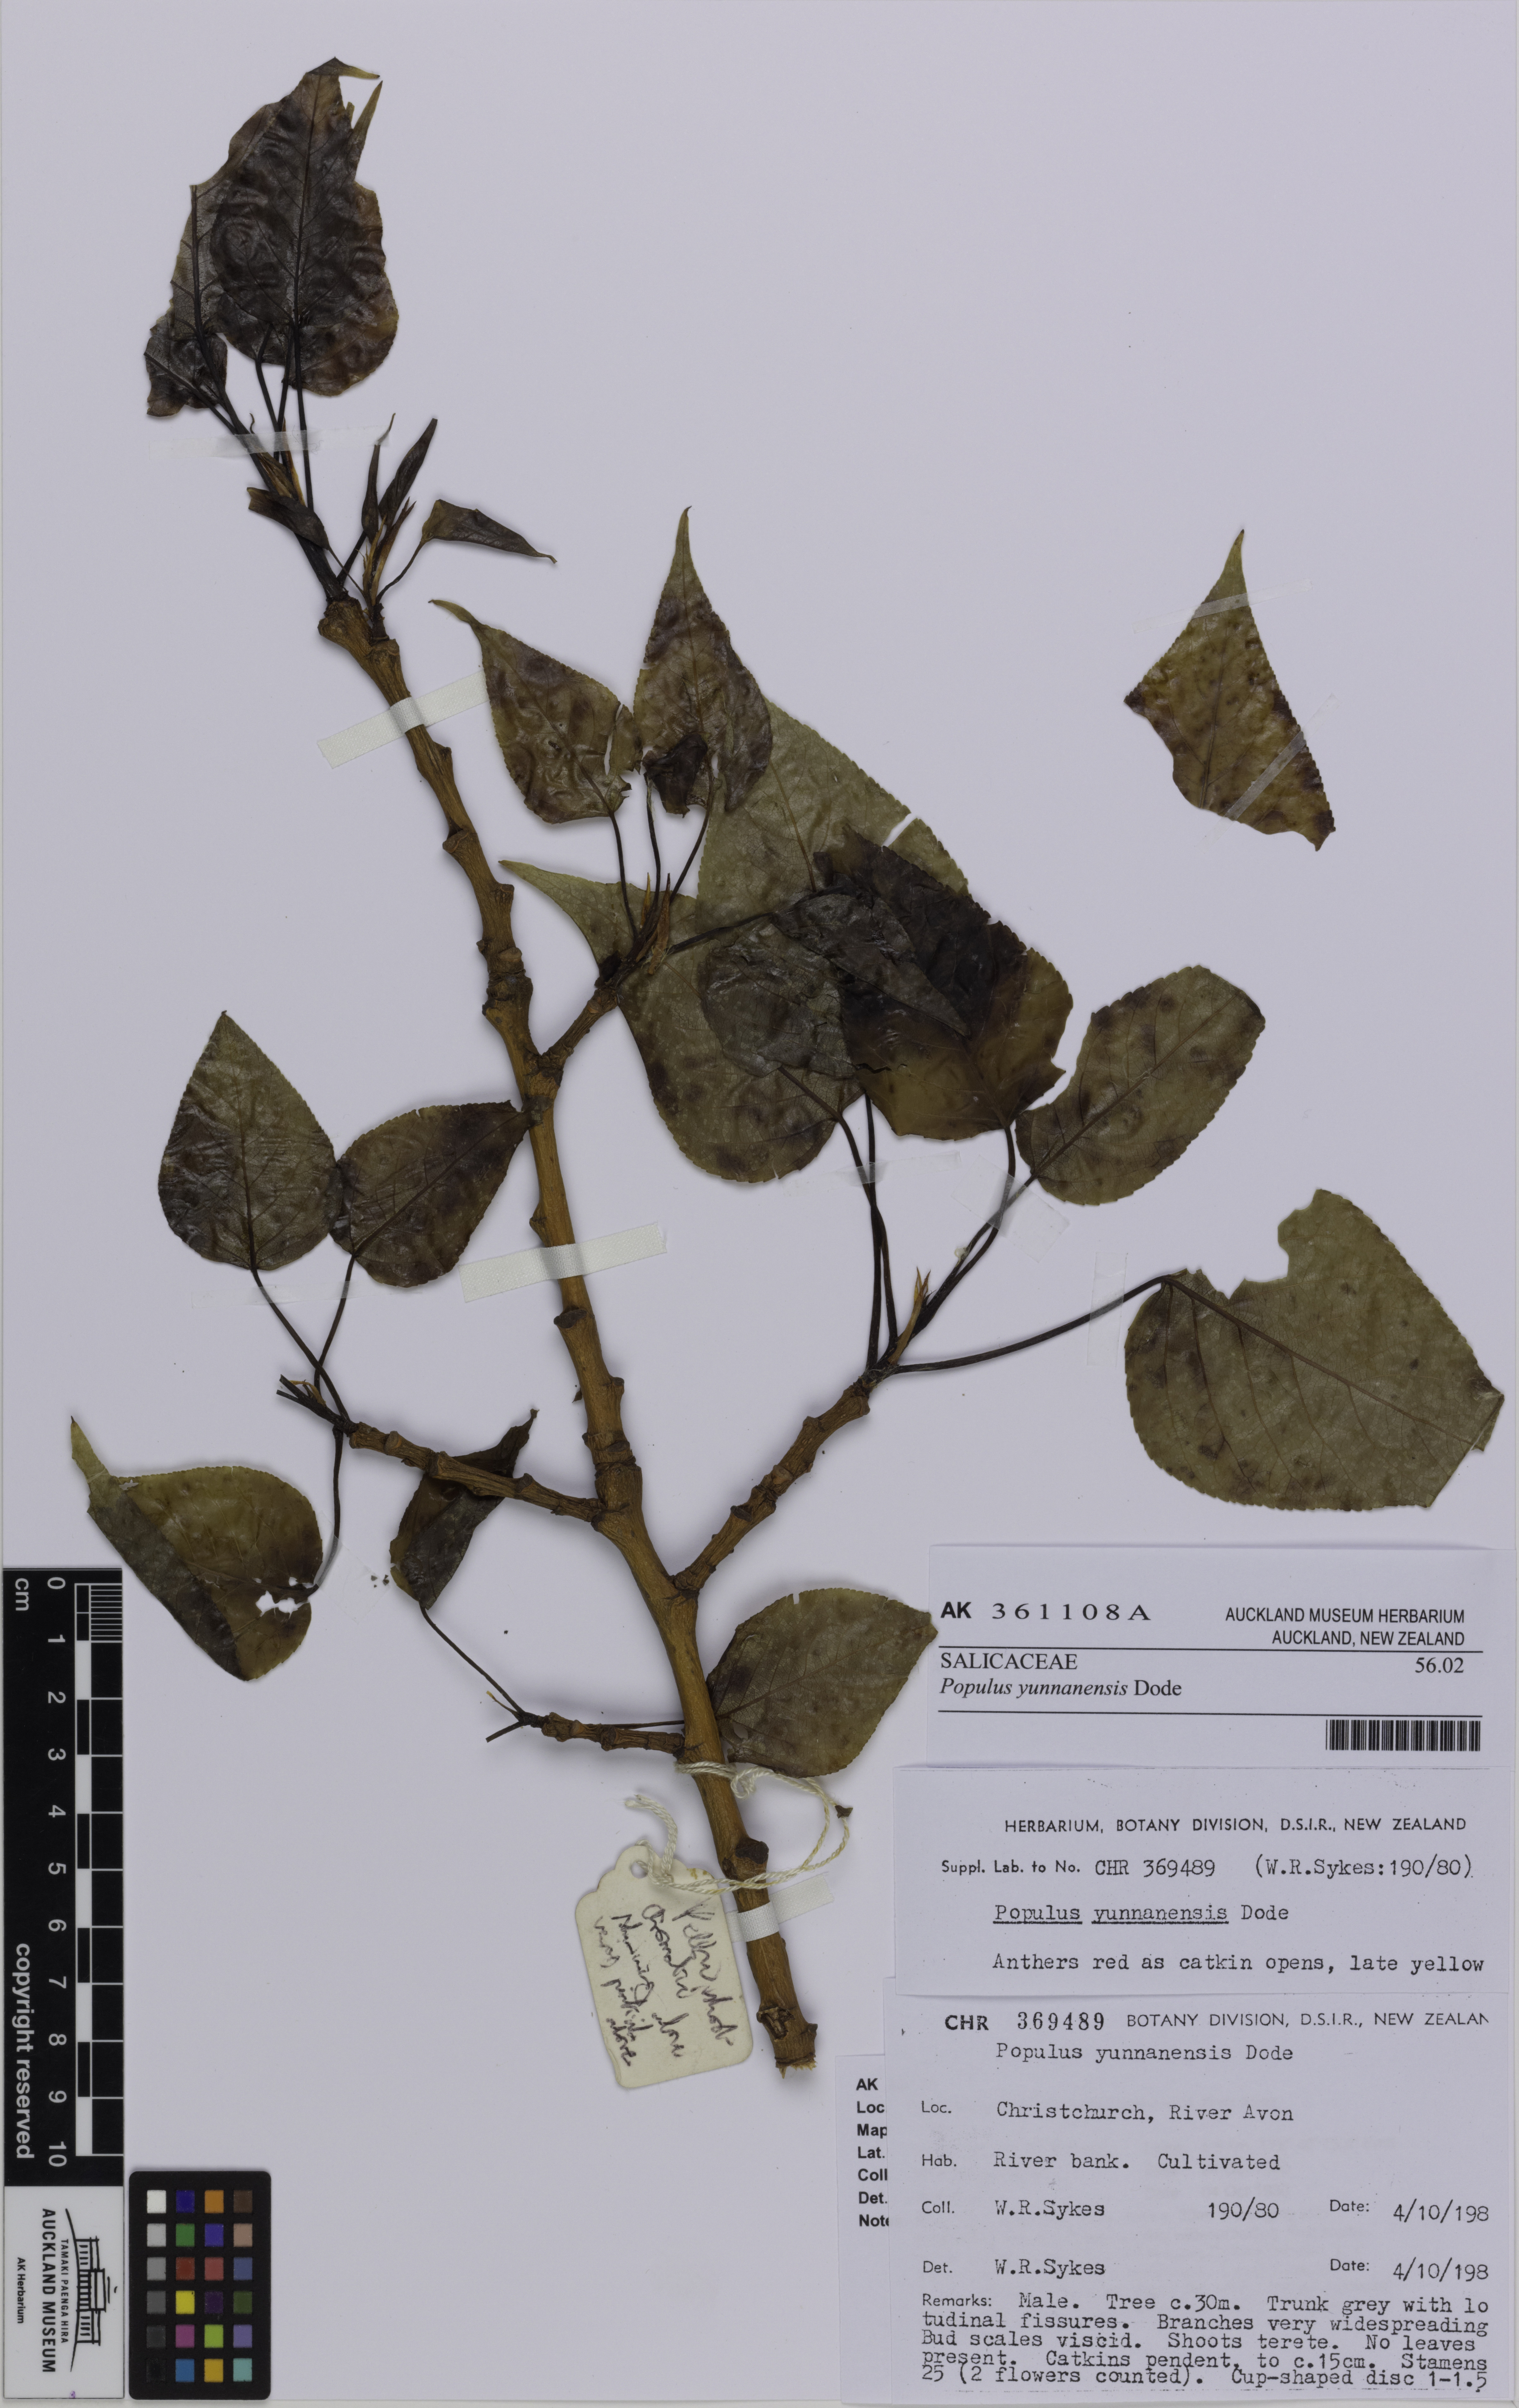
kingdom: Plantae
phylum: Tracheophyta
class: Magnoliopsida
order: Malpighiales
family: Salicaceae
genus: Populus
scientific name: Populus yunnanensis
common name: Yunnan poplar
